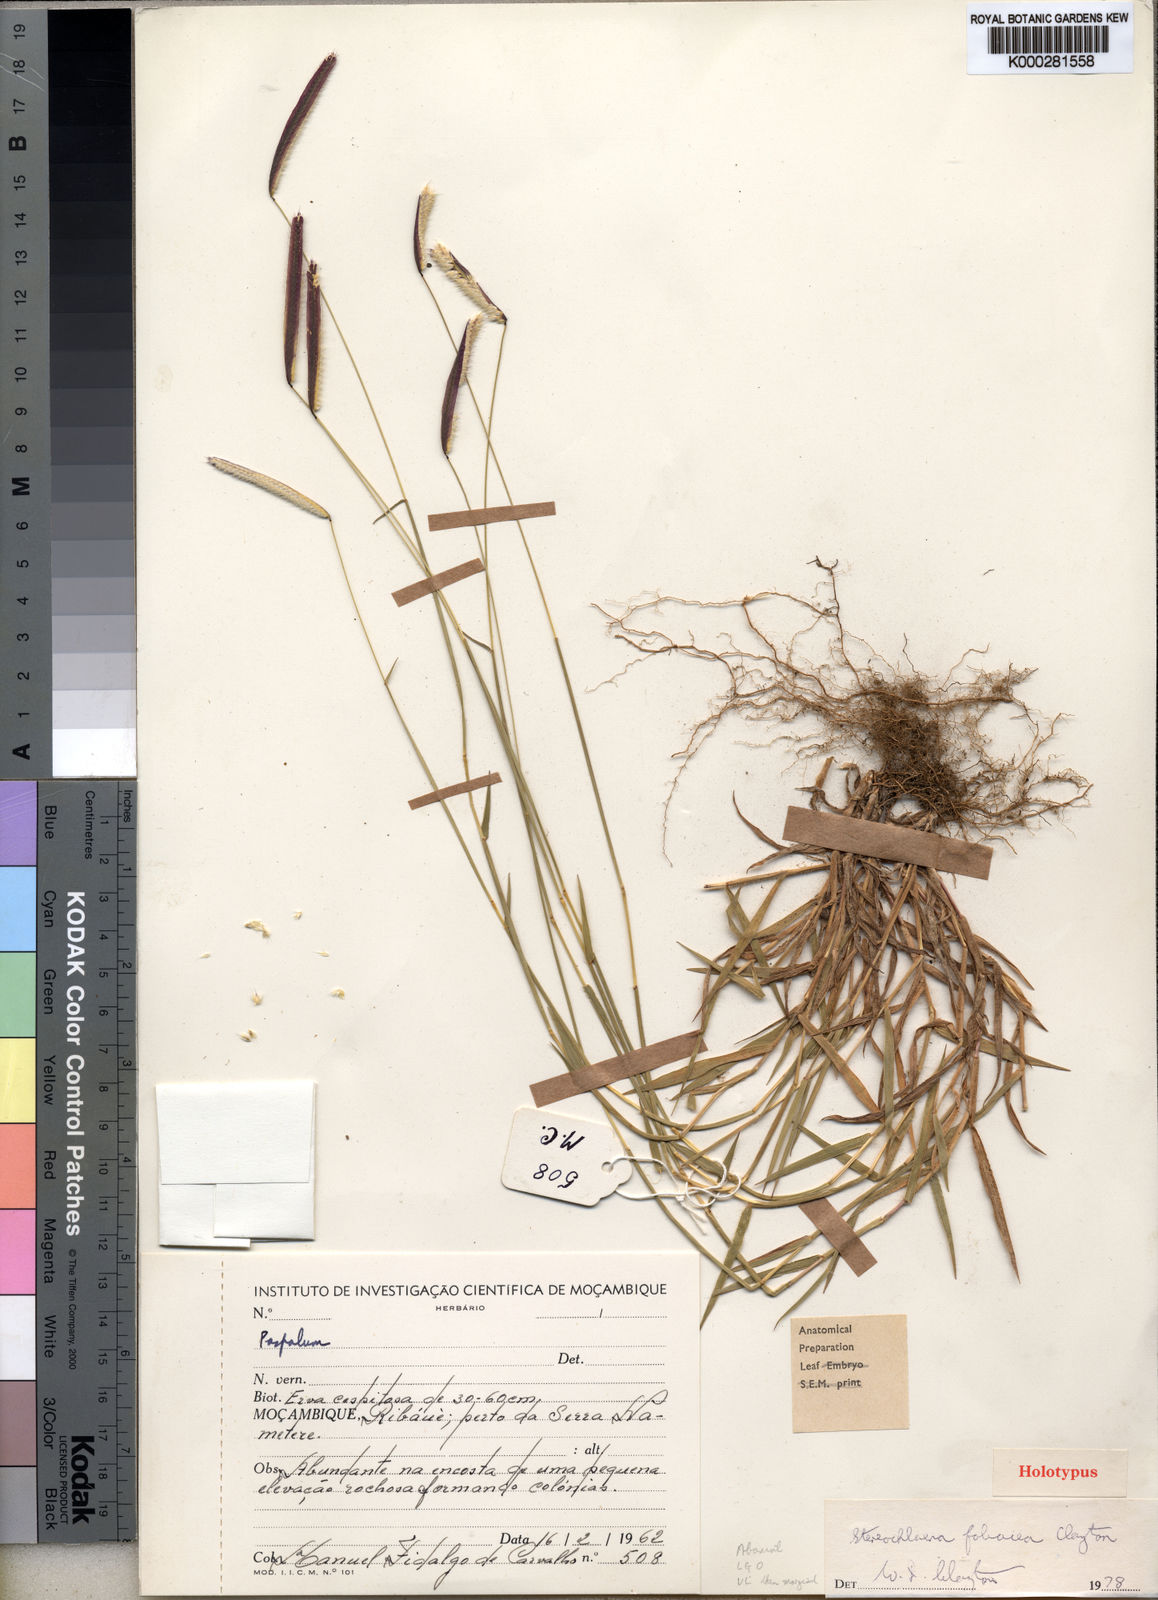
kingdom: Plantae
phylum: Tracheophyta
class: Liliopsida
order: Poales
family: Poaceae
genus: Baptorhachis
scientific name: Baptorhachis foliacea
